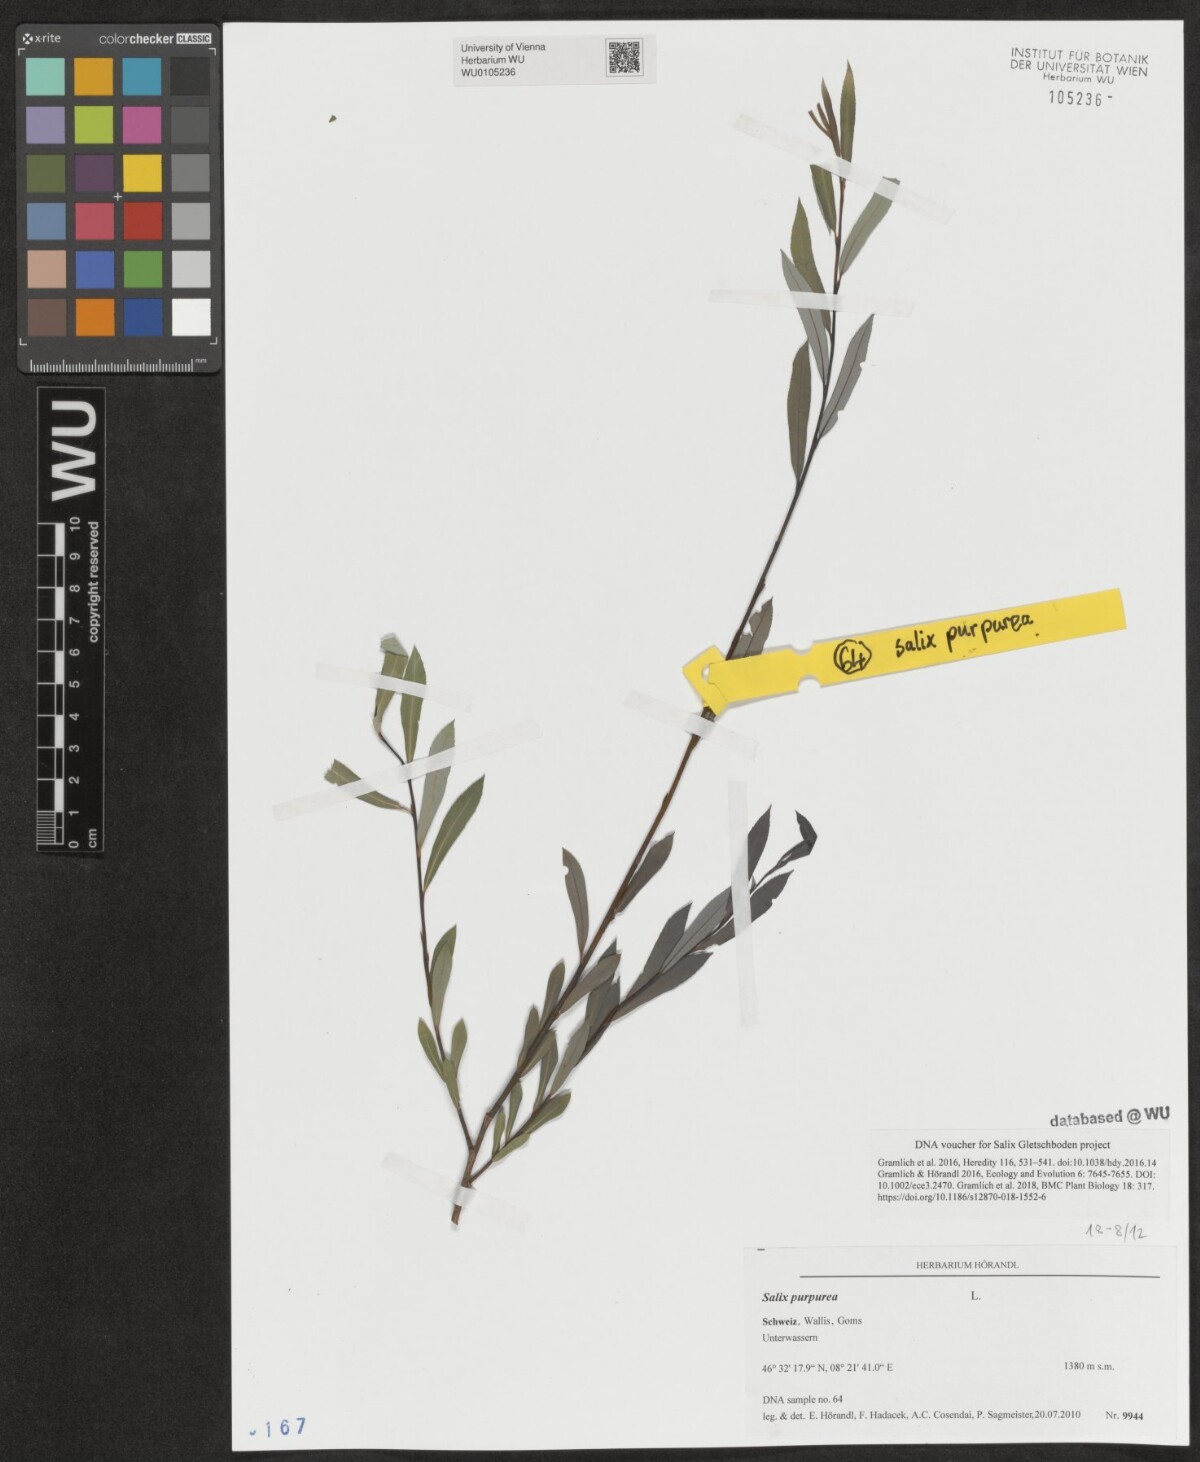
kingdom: Plantae
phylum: Tracheophyta
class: Magnoliopsida
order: Malpighiales
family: Salicaceae
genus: Salix
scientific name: Salix purpurea
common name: Purple willow
